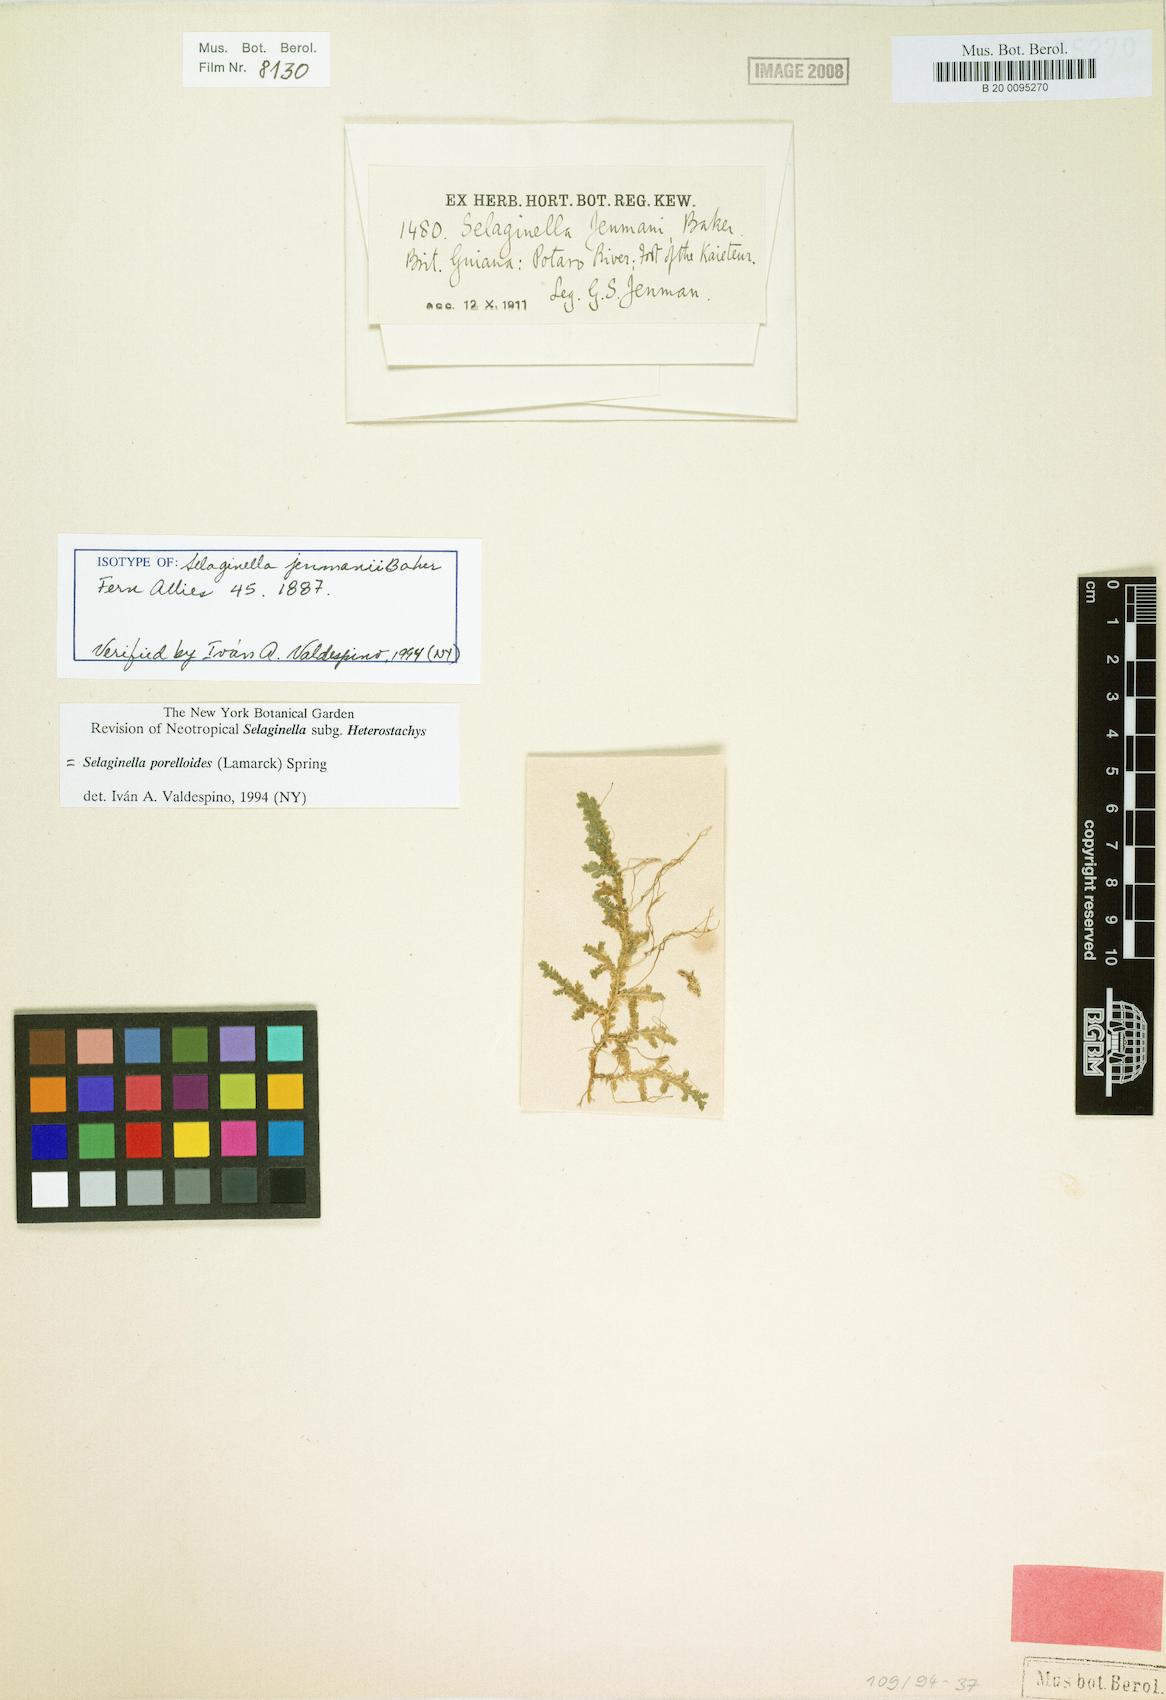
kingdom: Plantae
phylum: Tracheophyta
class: Lycopodiopsida
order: Selaginellales
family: Selaginellaceae
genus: Selaginella
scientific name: Selaginella porelloides
